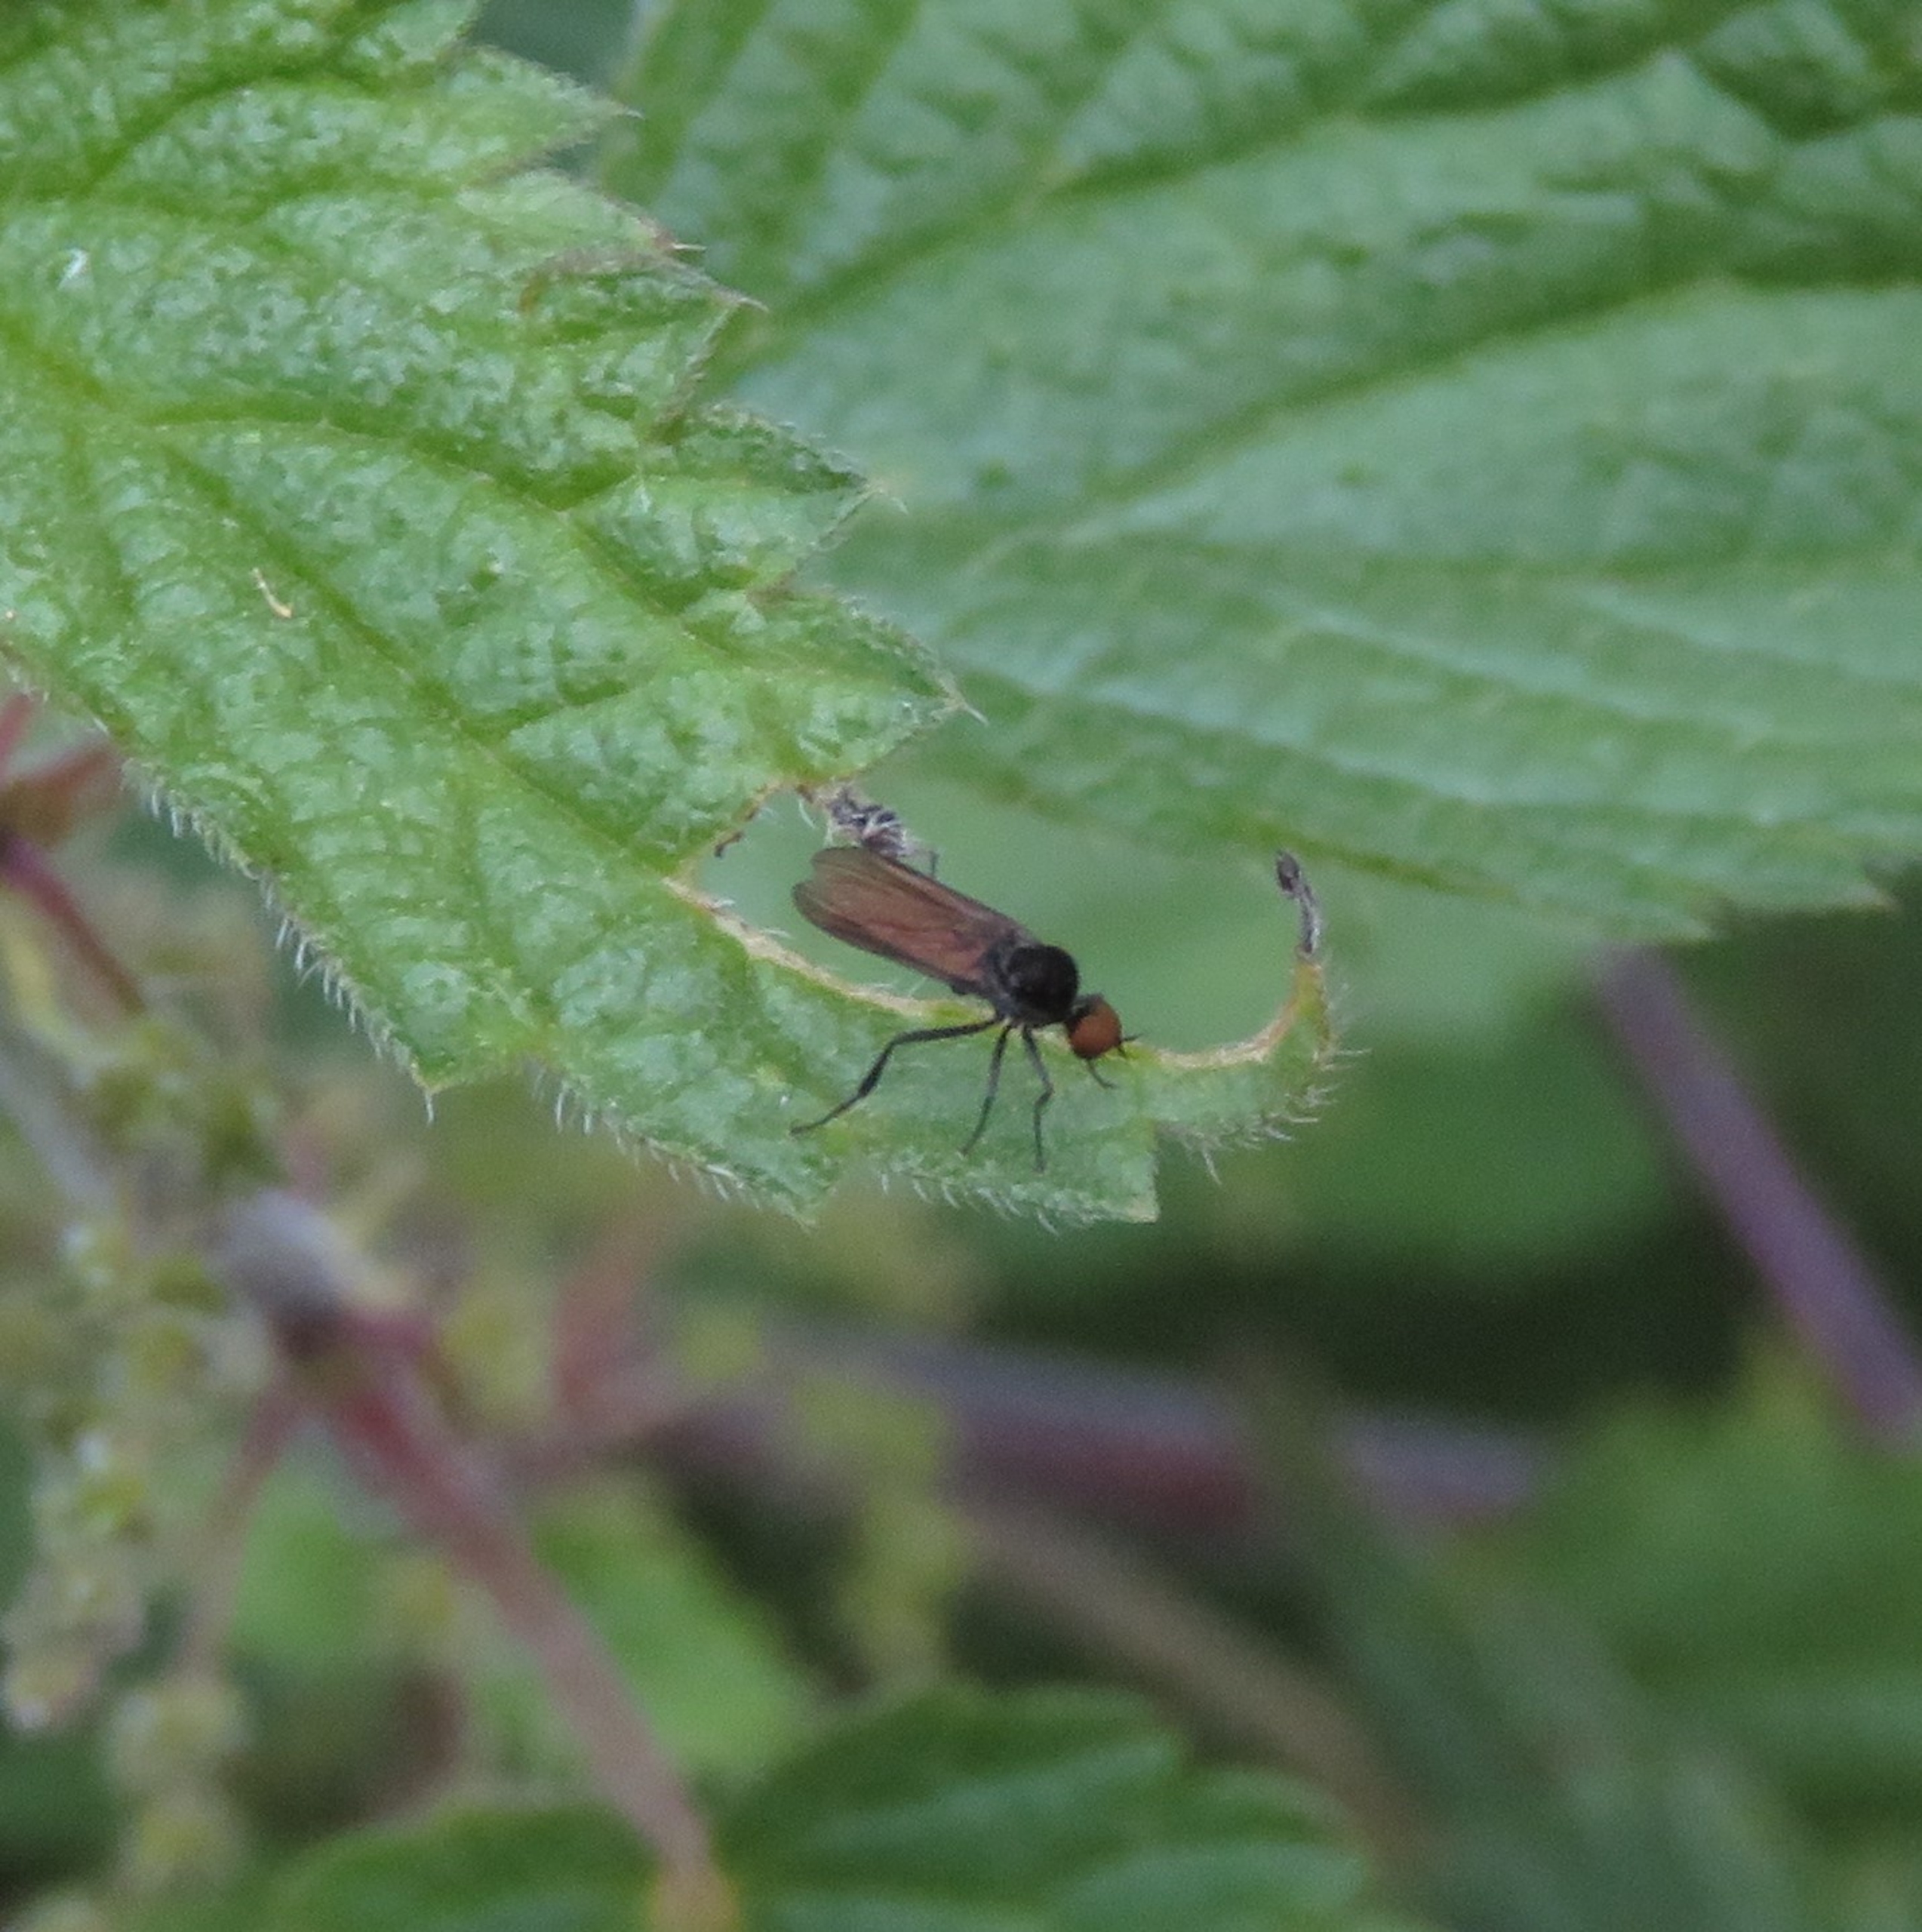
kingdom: Animalia
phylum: Arthropoda
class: Insecta
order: Diptera
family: Hybotidae
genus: Bicellaria
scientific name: Bicellaria
